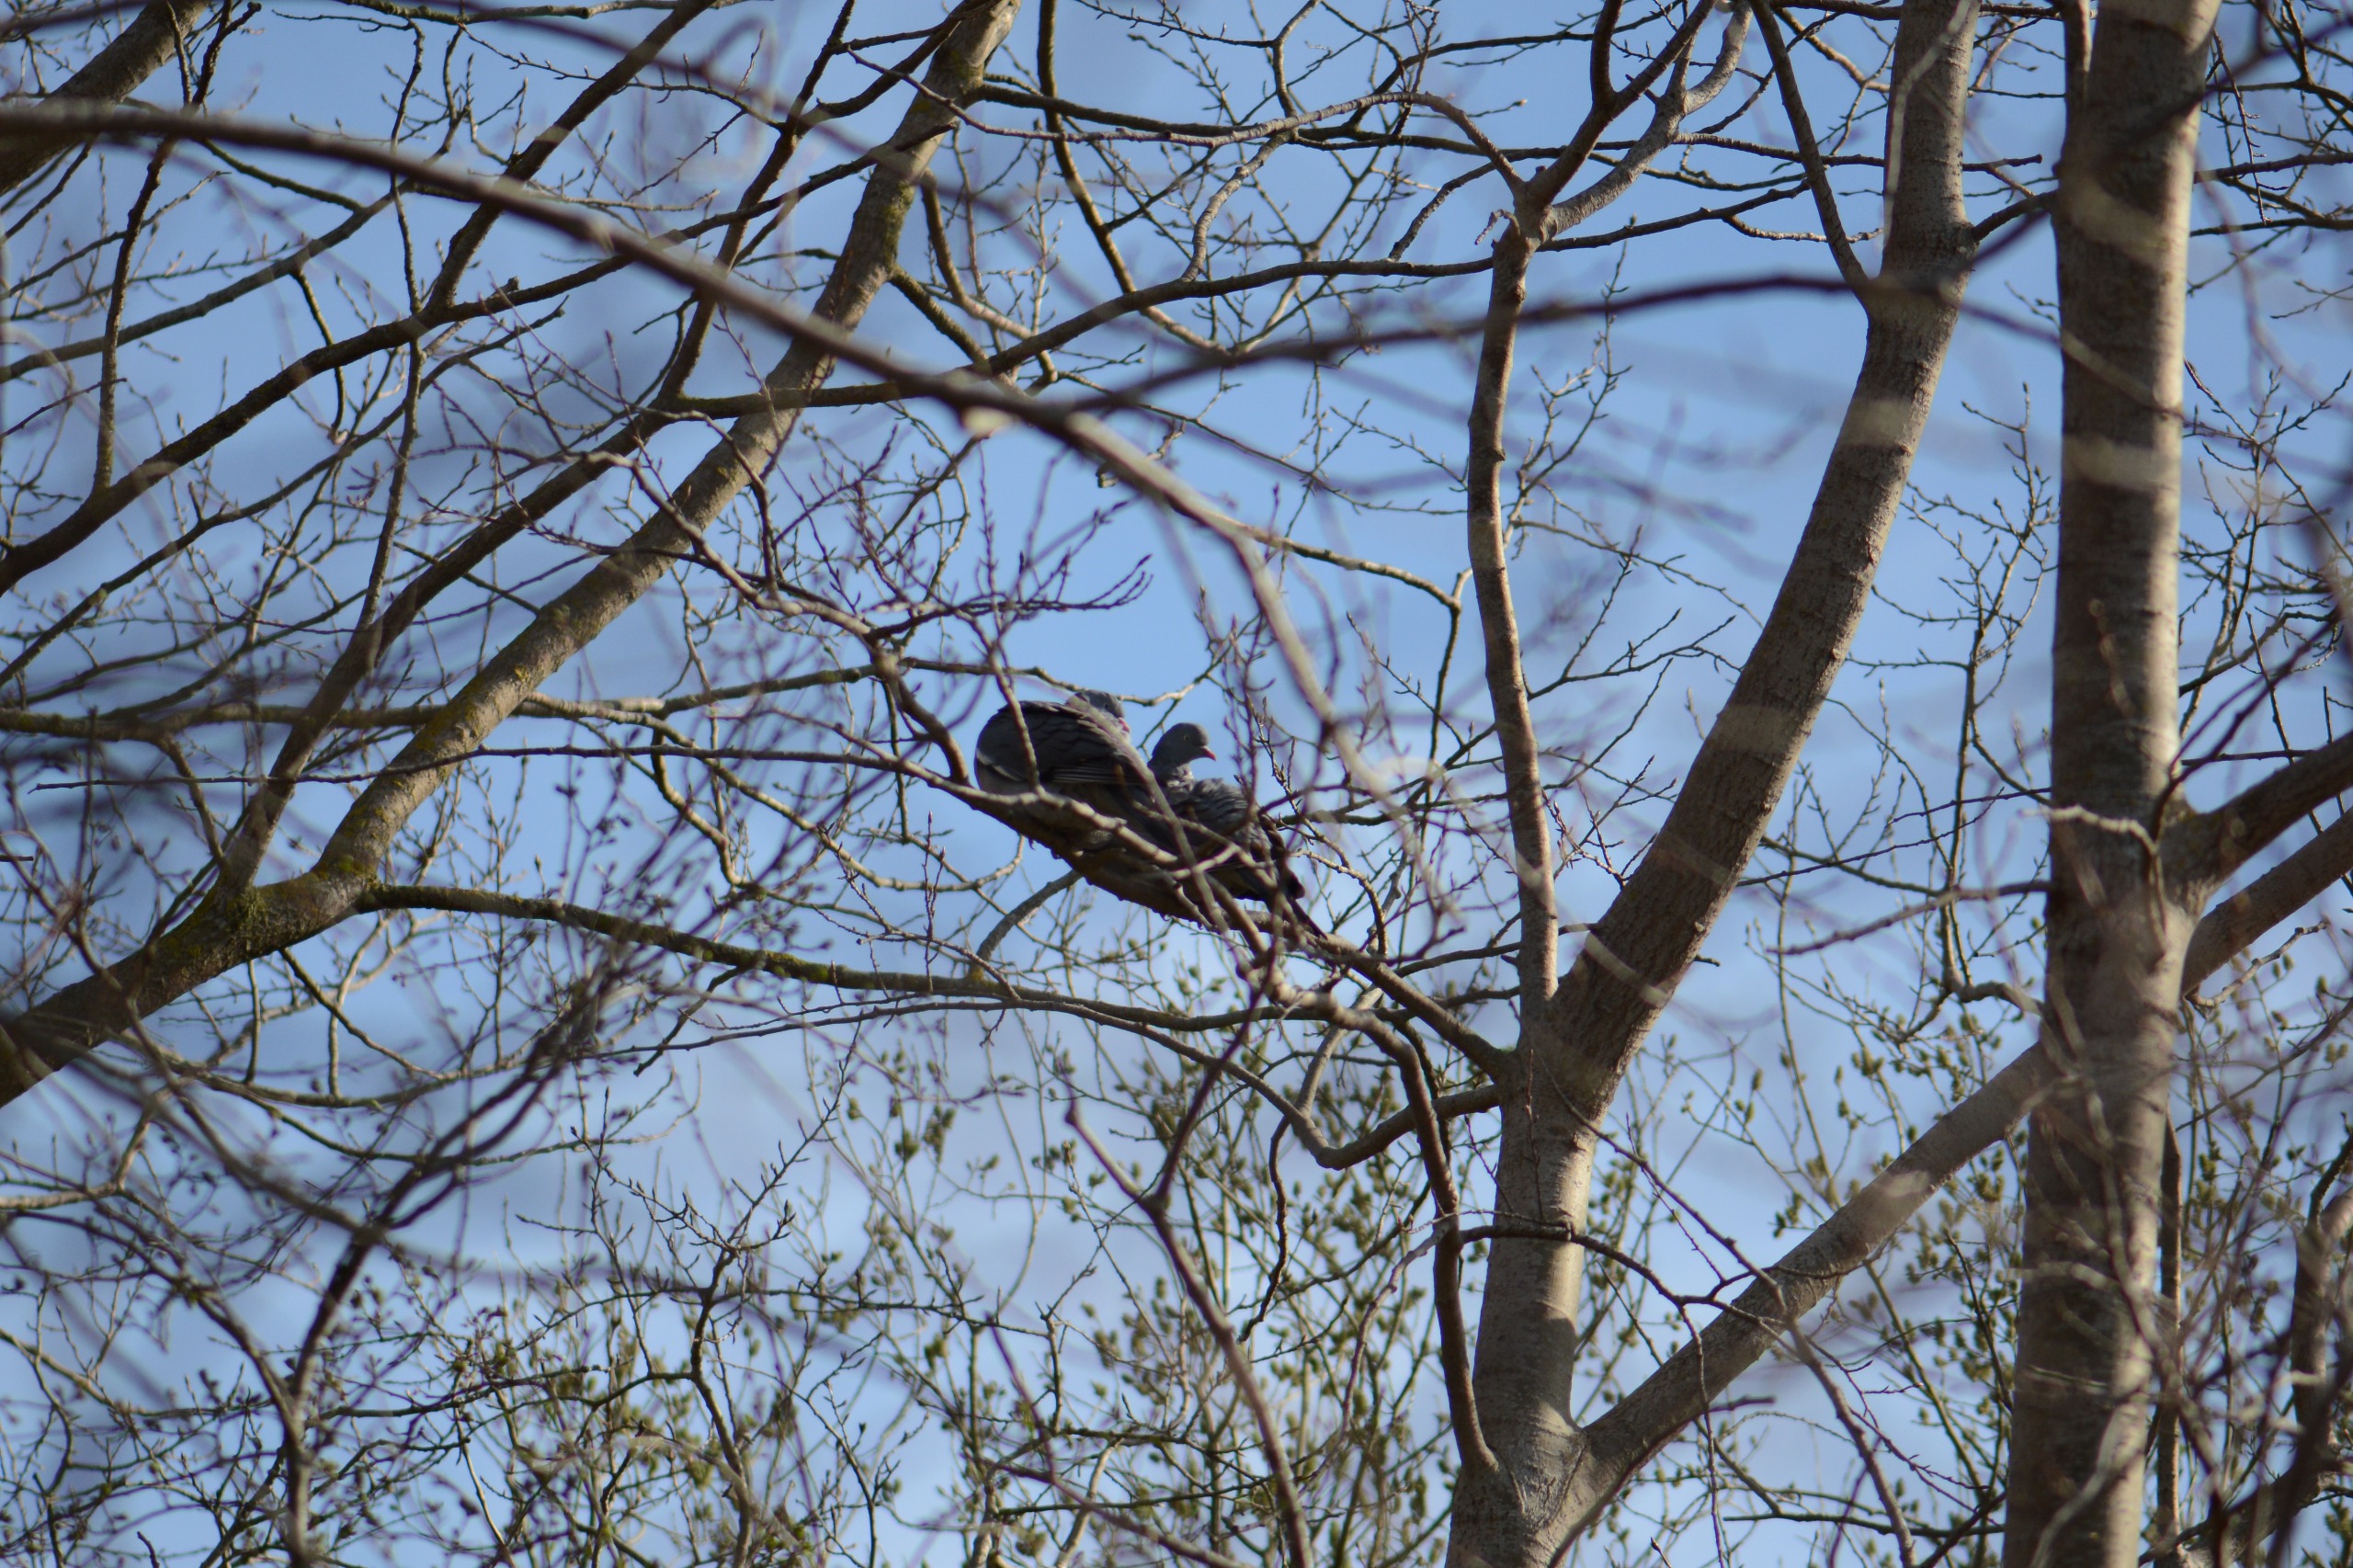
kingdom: Animalia
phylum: Chordata
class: Aves
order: Columbiformes
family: Columbidae
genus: Columba
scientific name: Columba palumbus
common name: Ringdue
